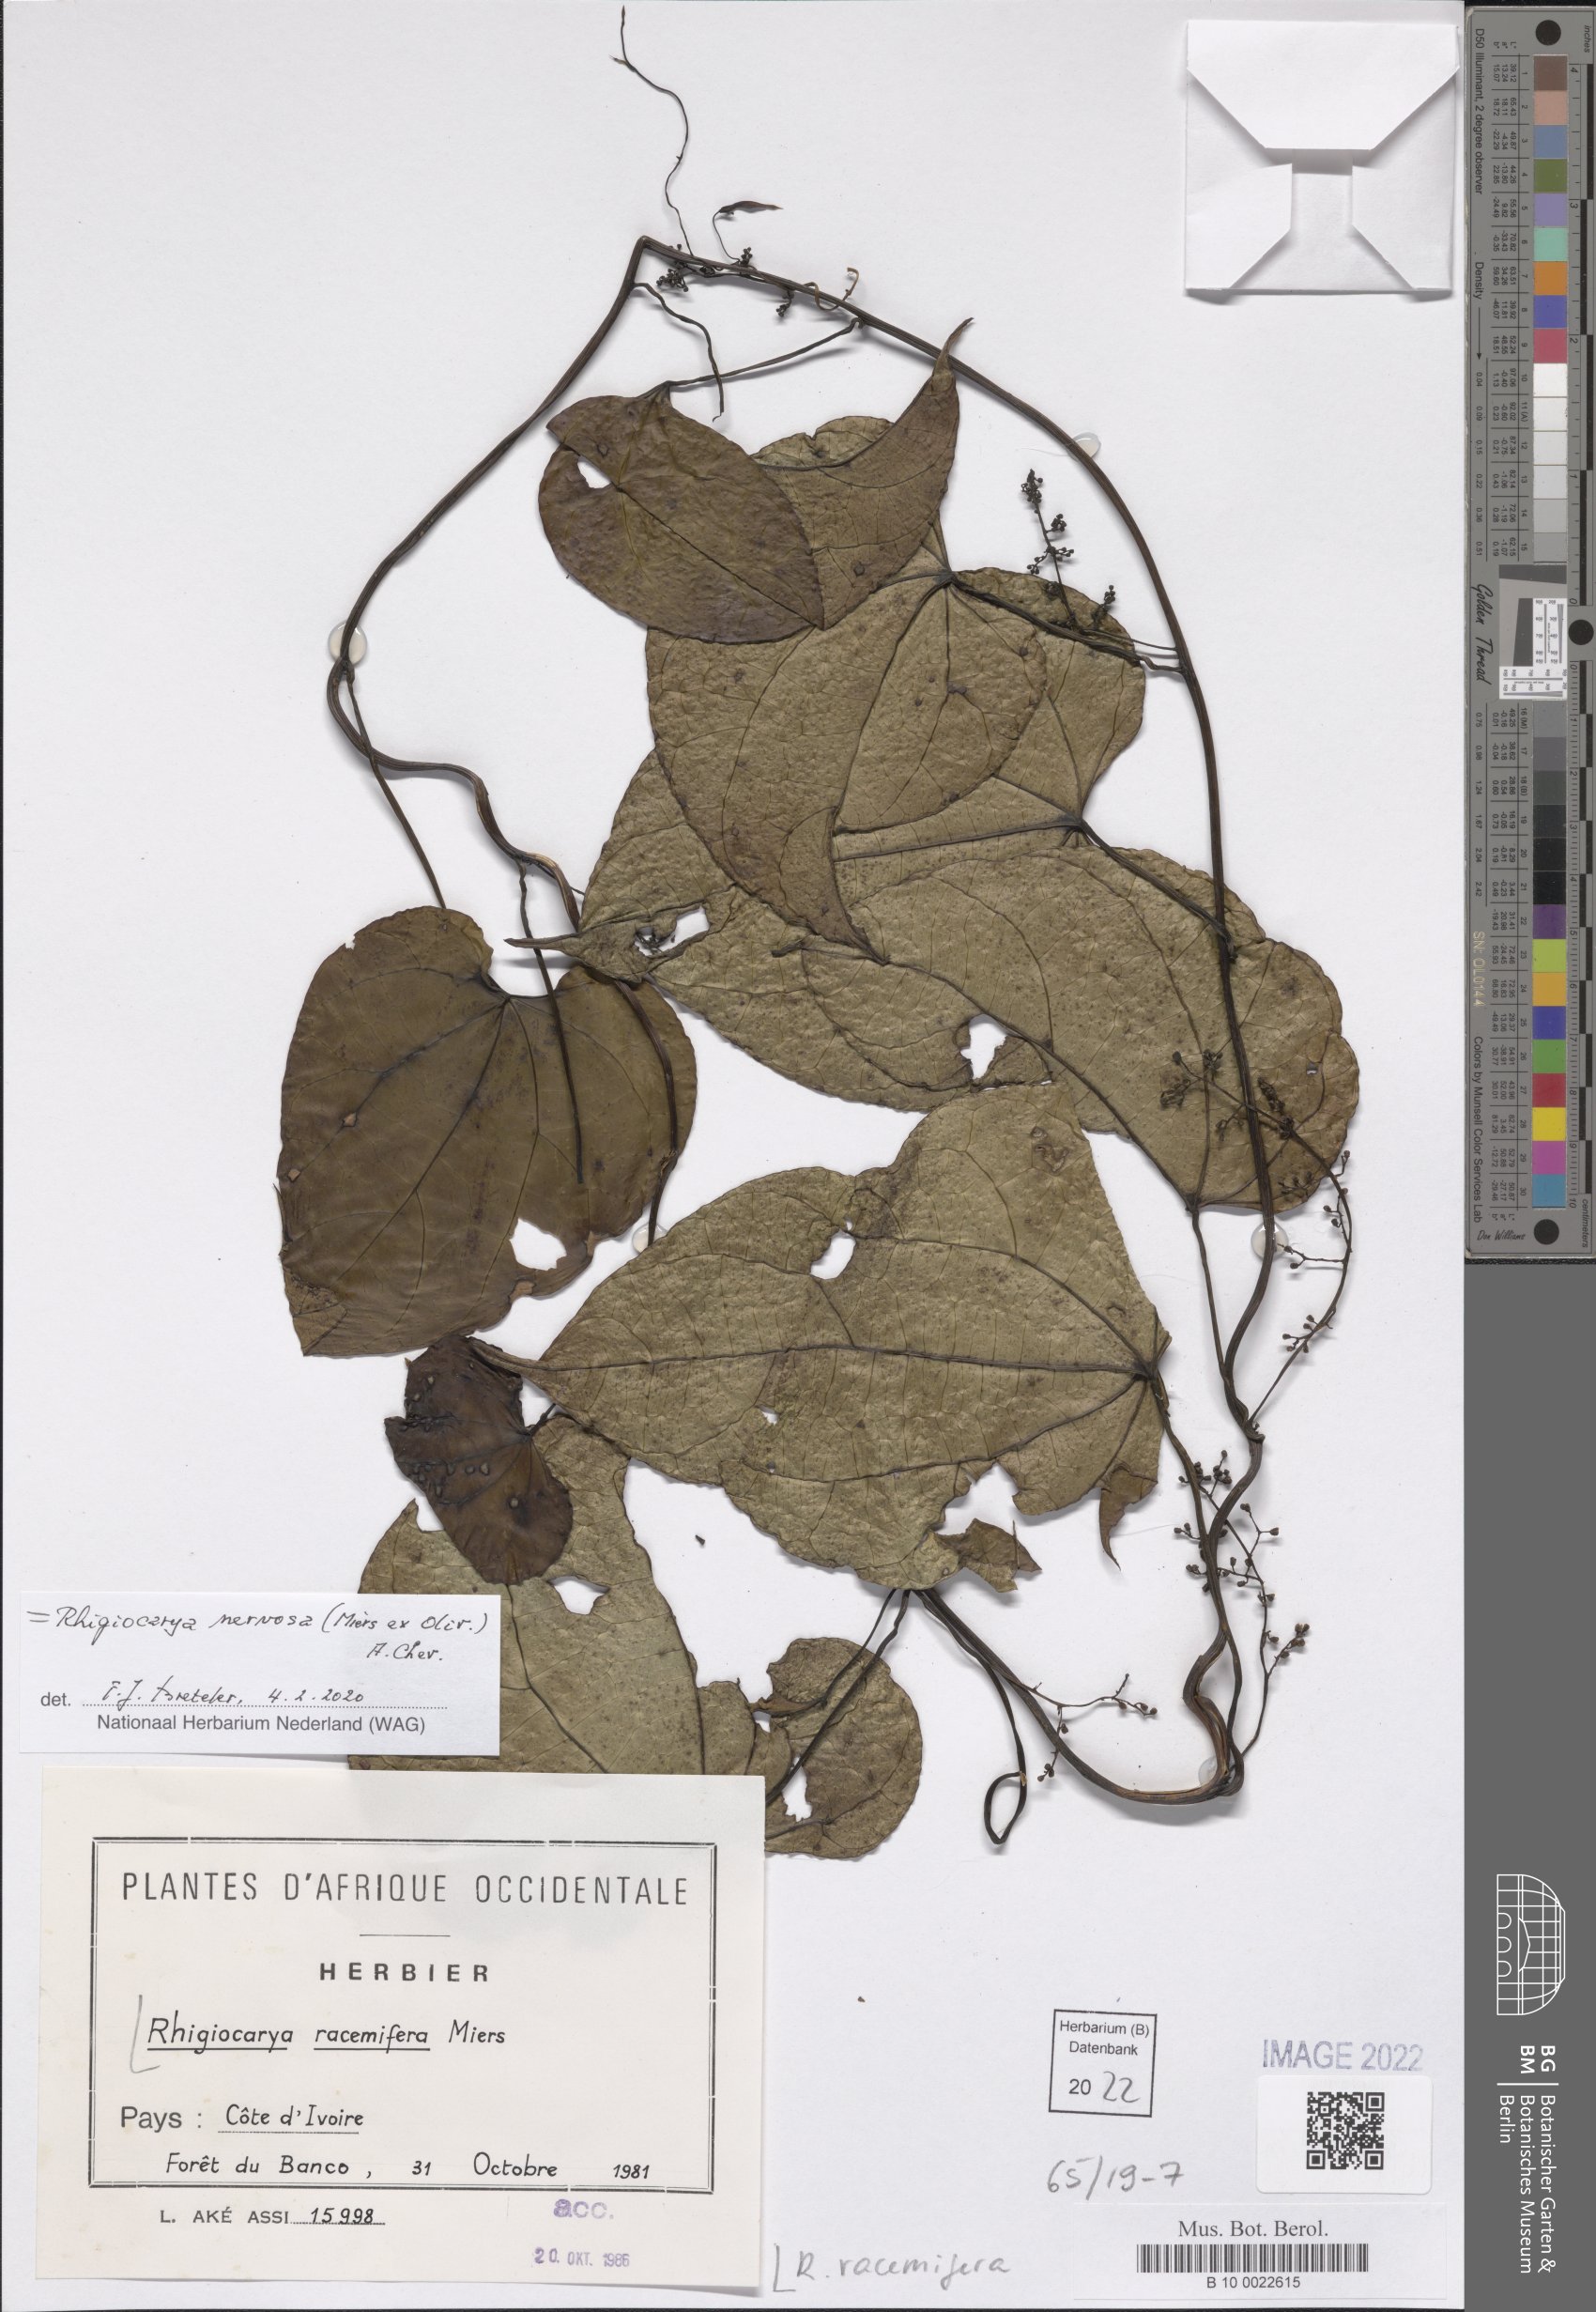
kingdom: Plantae
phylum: Tracheophyta
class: Magnoliopsida
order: Ranunculales
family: Menispermaceae
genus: Rhigiocarya
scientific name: Rhigiocarya racemifera
